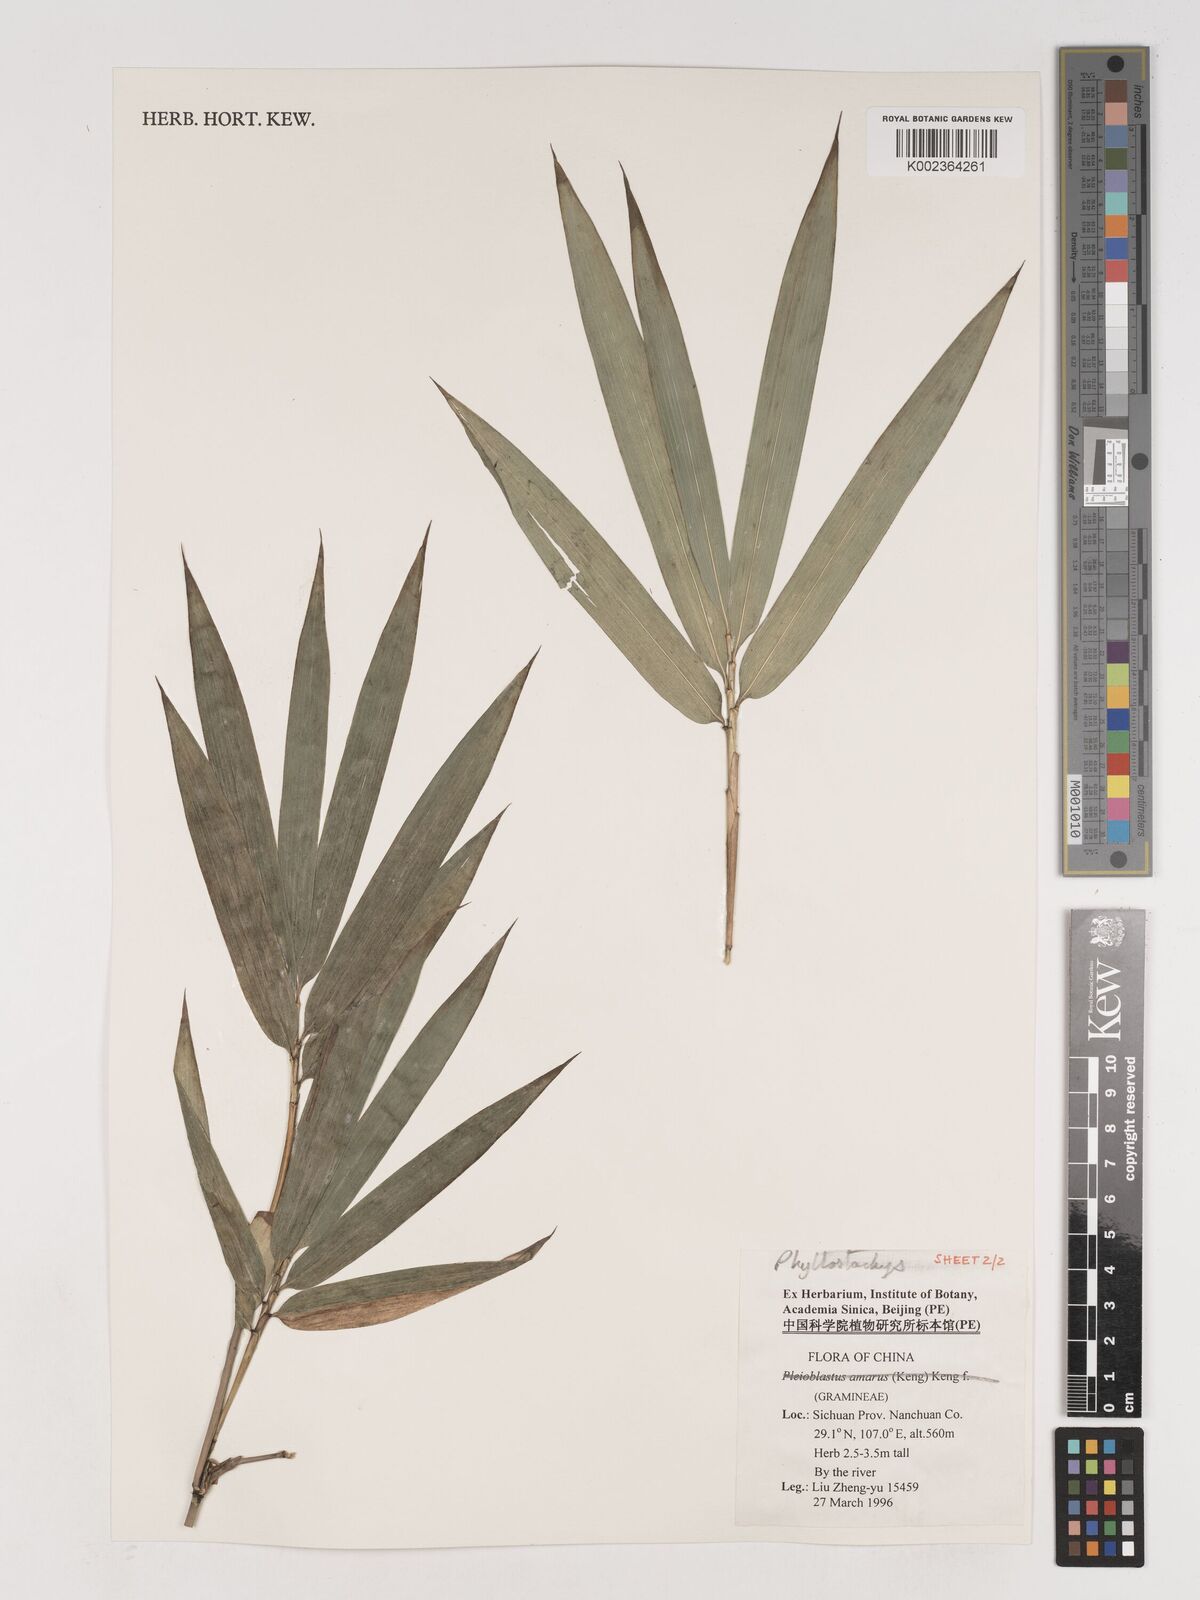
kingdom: Plantae
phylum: Tracheophyta
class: Liliopsida
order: Poales
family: Poaceae
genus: Phyllostachys
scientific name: Phyllostachys nigra
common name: Black bamboo
